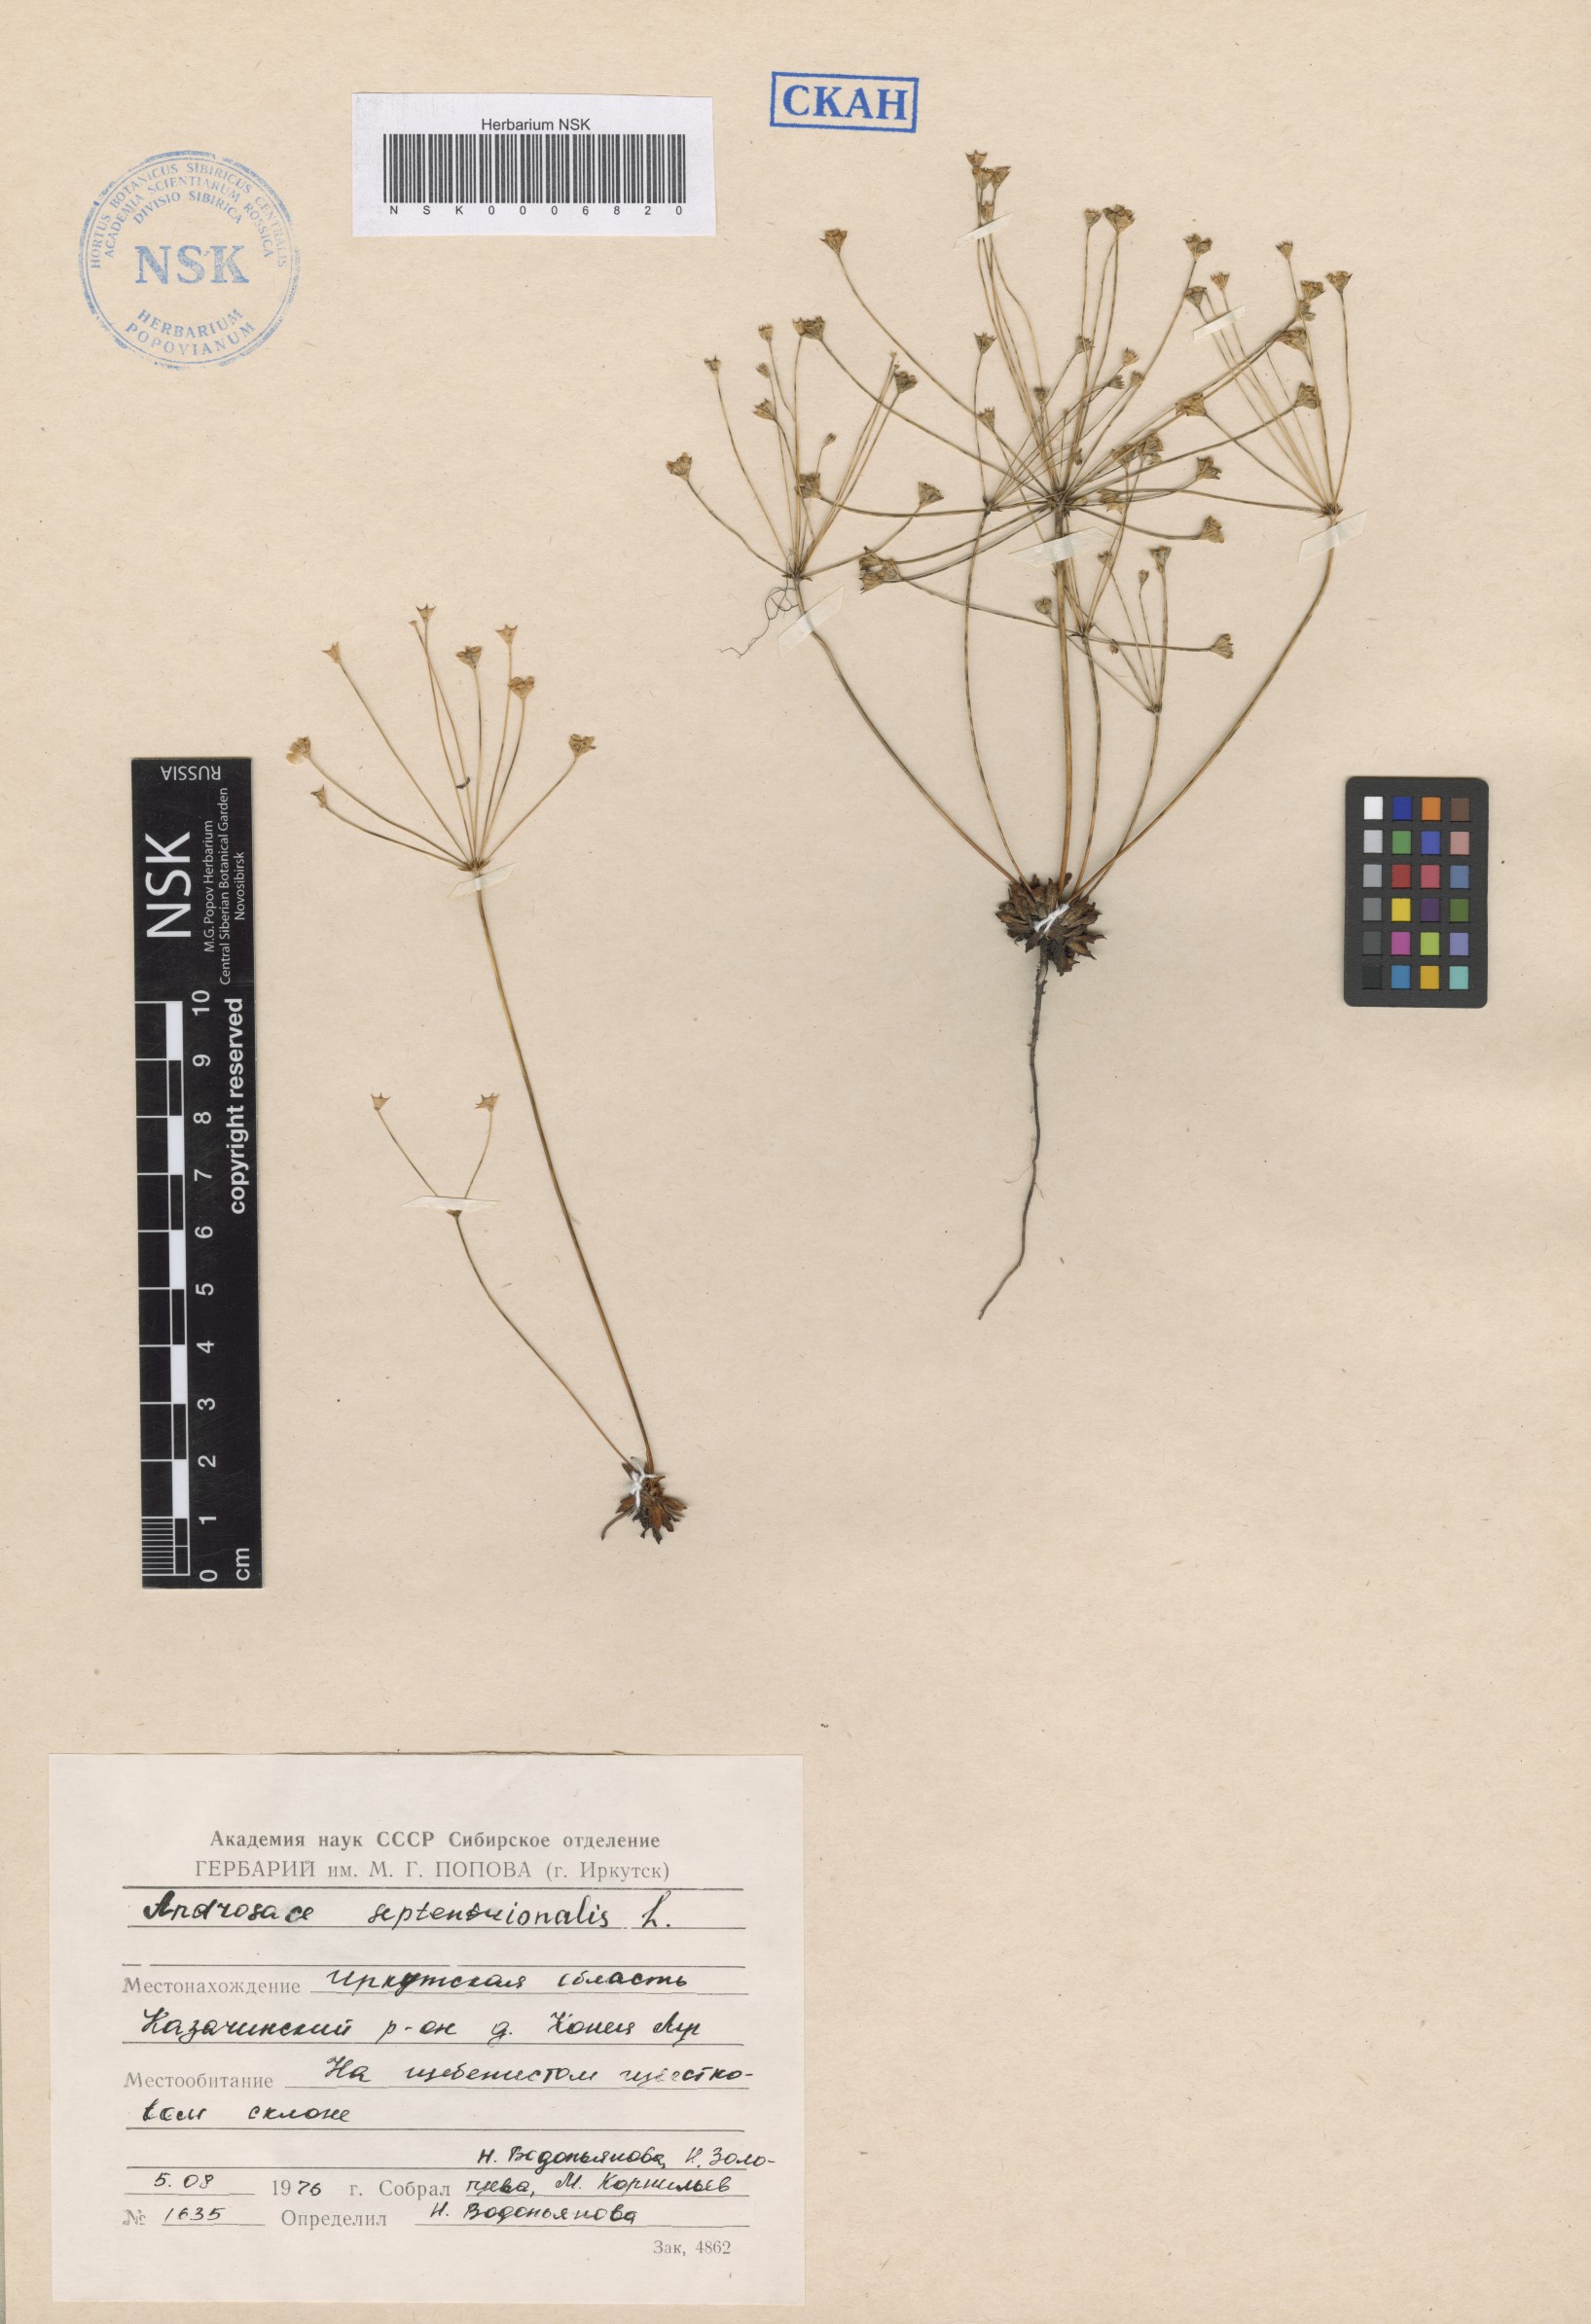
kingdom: Plantae
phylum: Tracheophyta
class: Magnoliopsida
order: Ericales
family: Primulaceae
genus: Androsace
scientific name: Androsace septentrionalis
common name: Hairy northern fairy-candelabra
